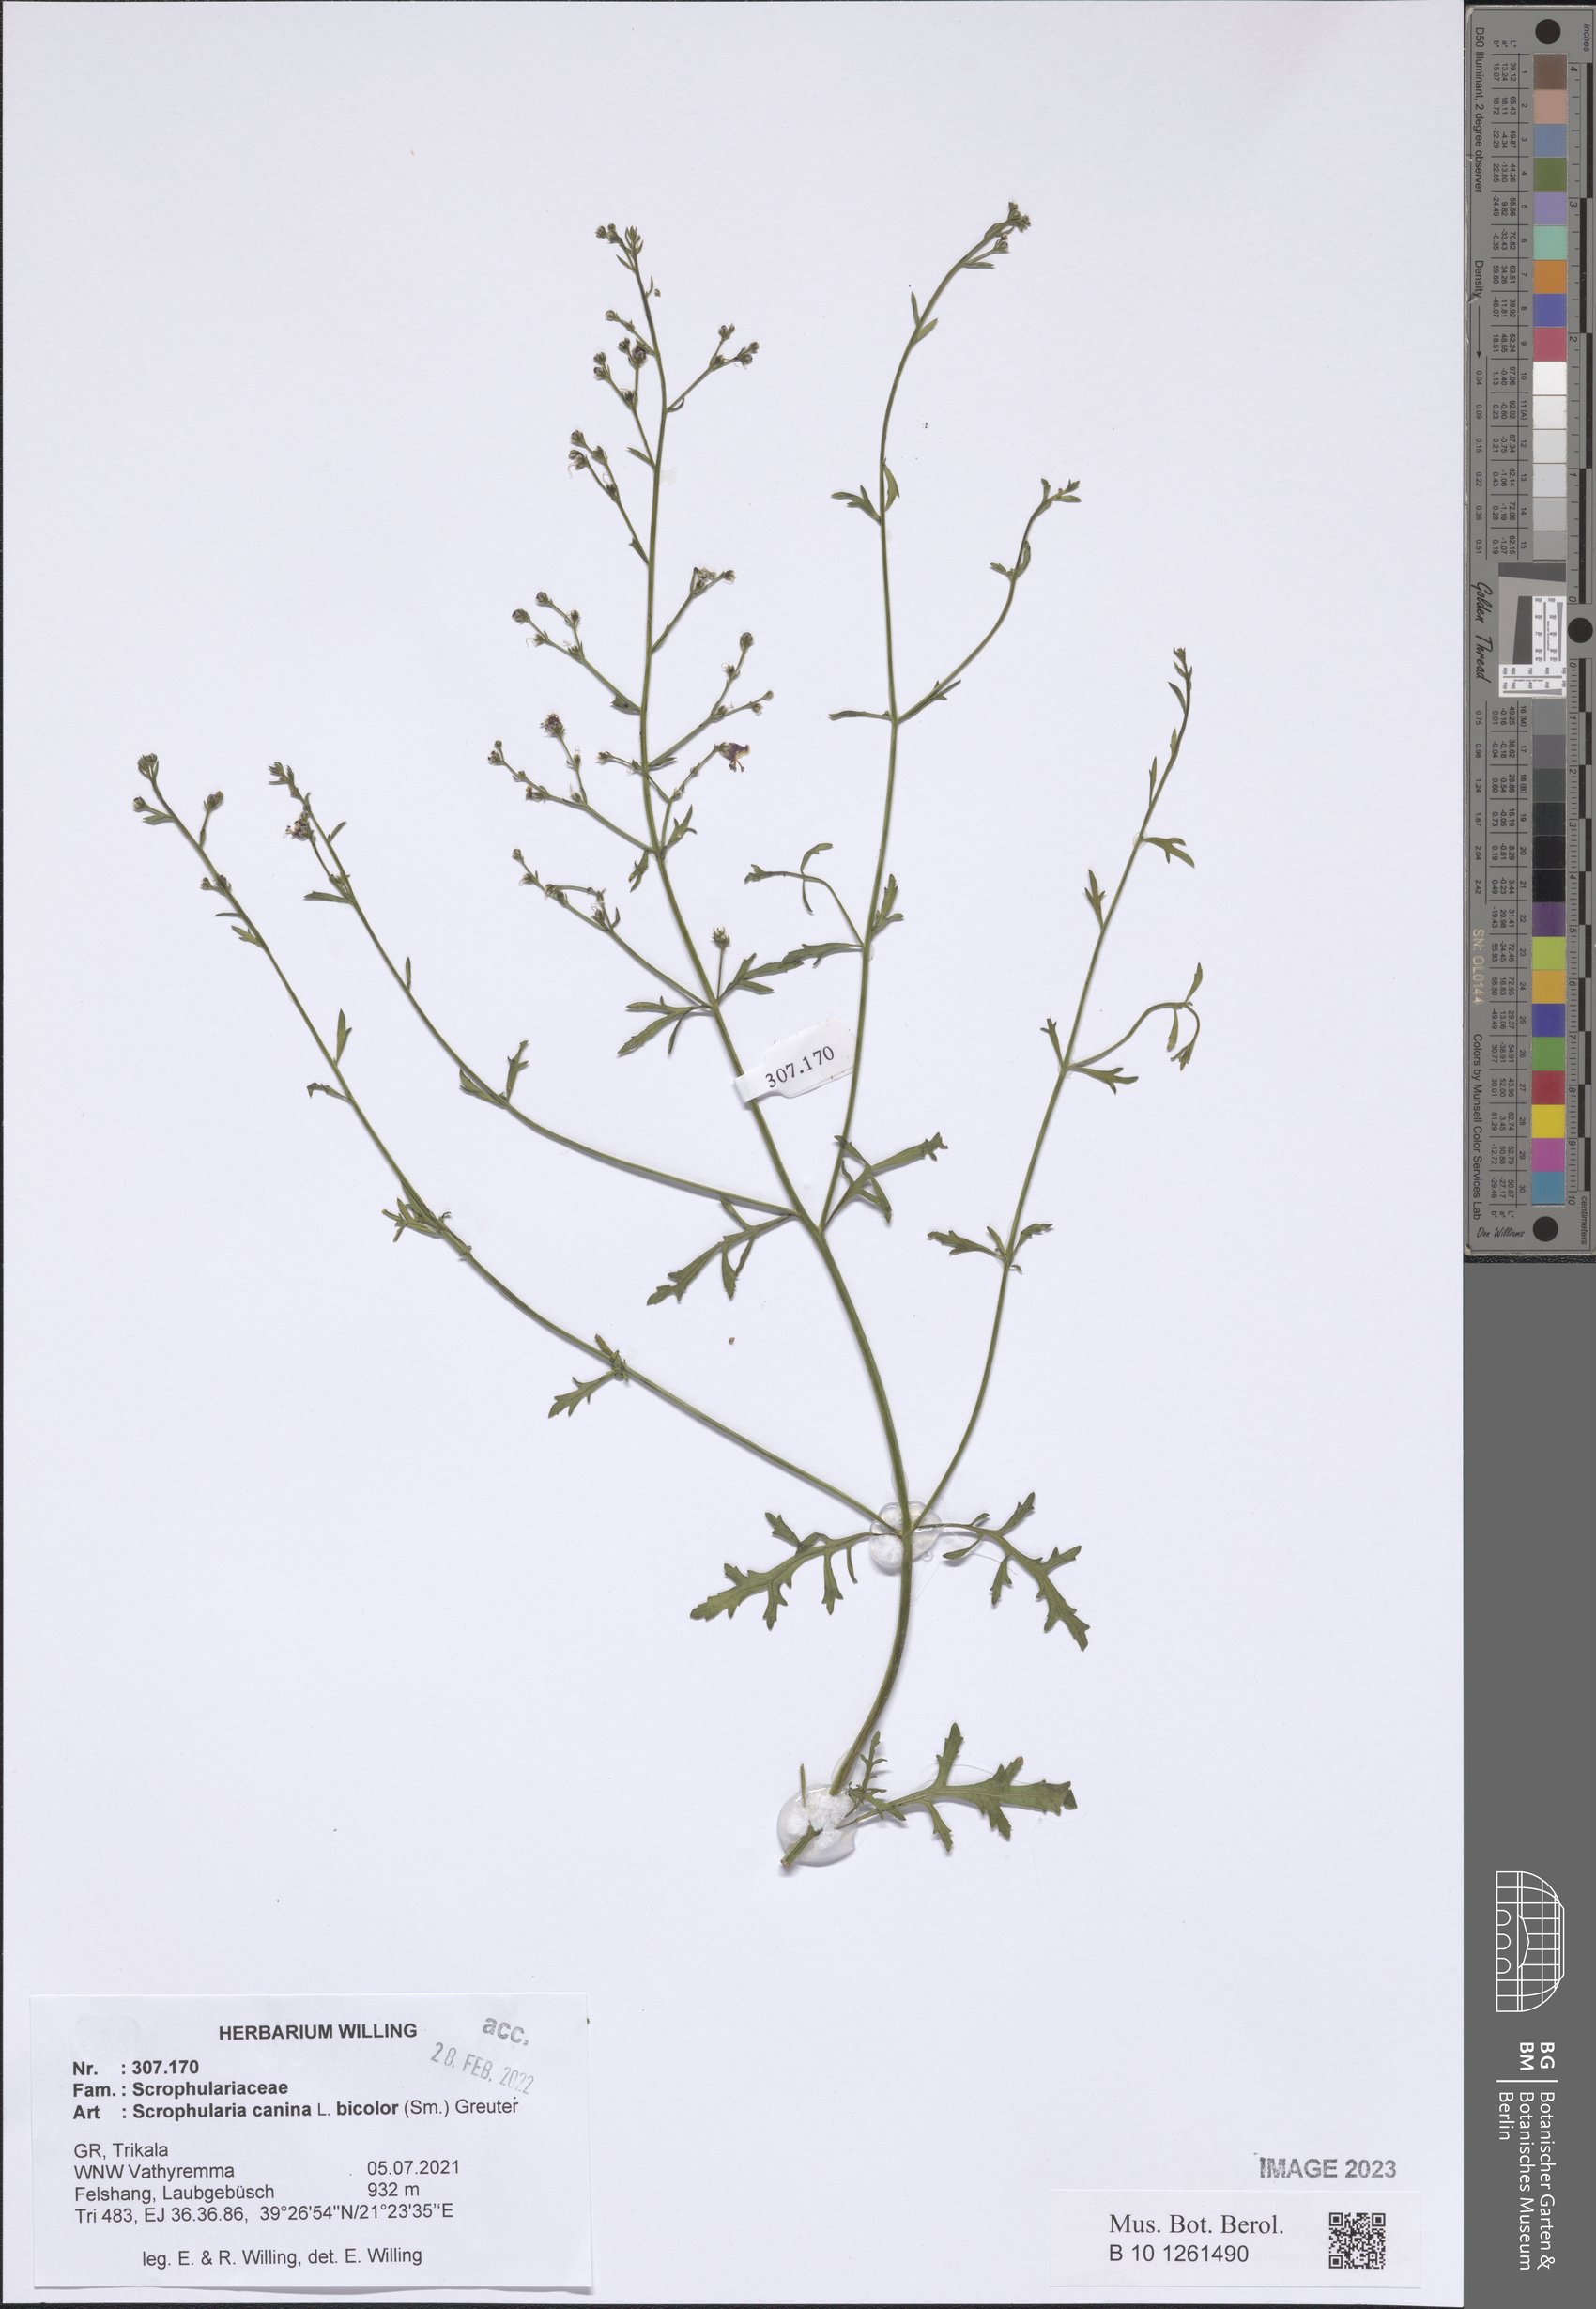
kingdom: Plantae
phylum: Tracheophyta
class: Magnoliopsida
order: Lamiales
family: Scrophulariaceae
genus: Scrophularia
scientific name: Scrophularia canina
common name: French figwort
